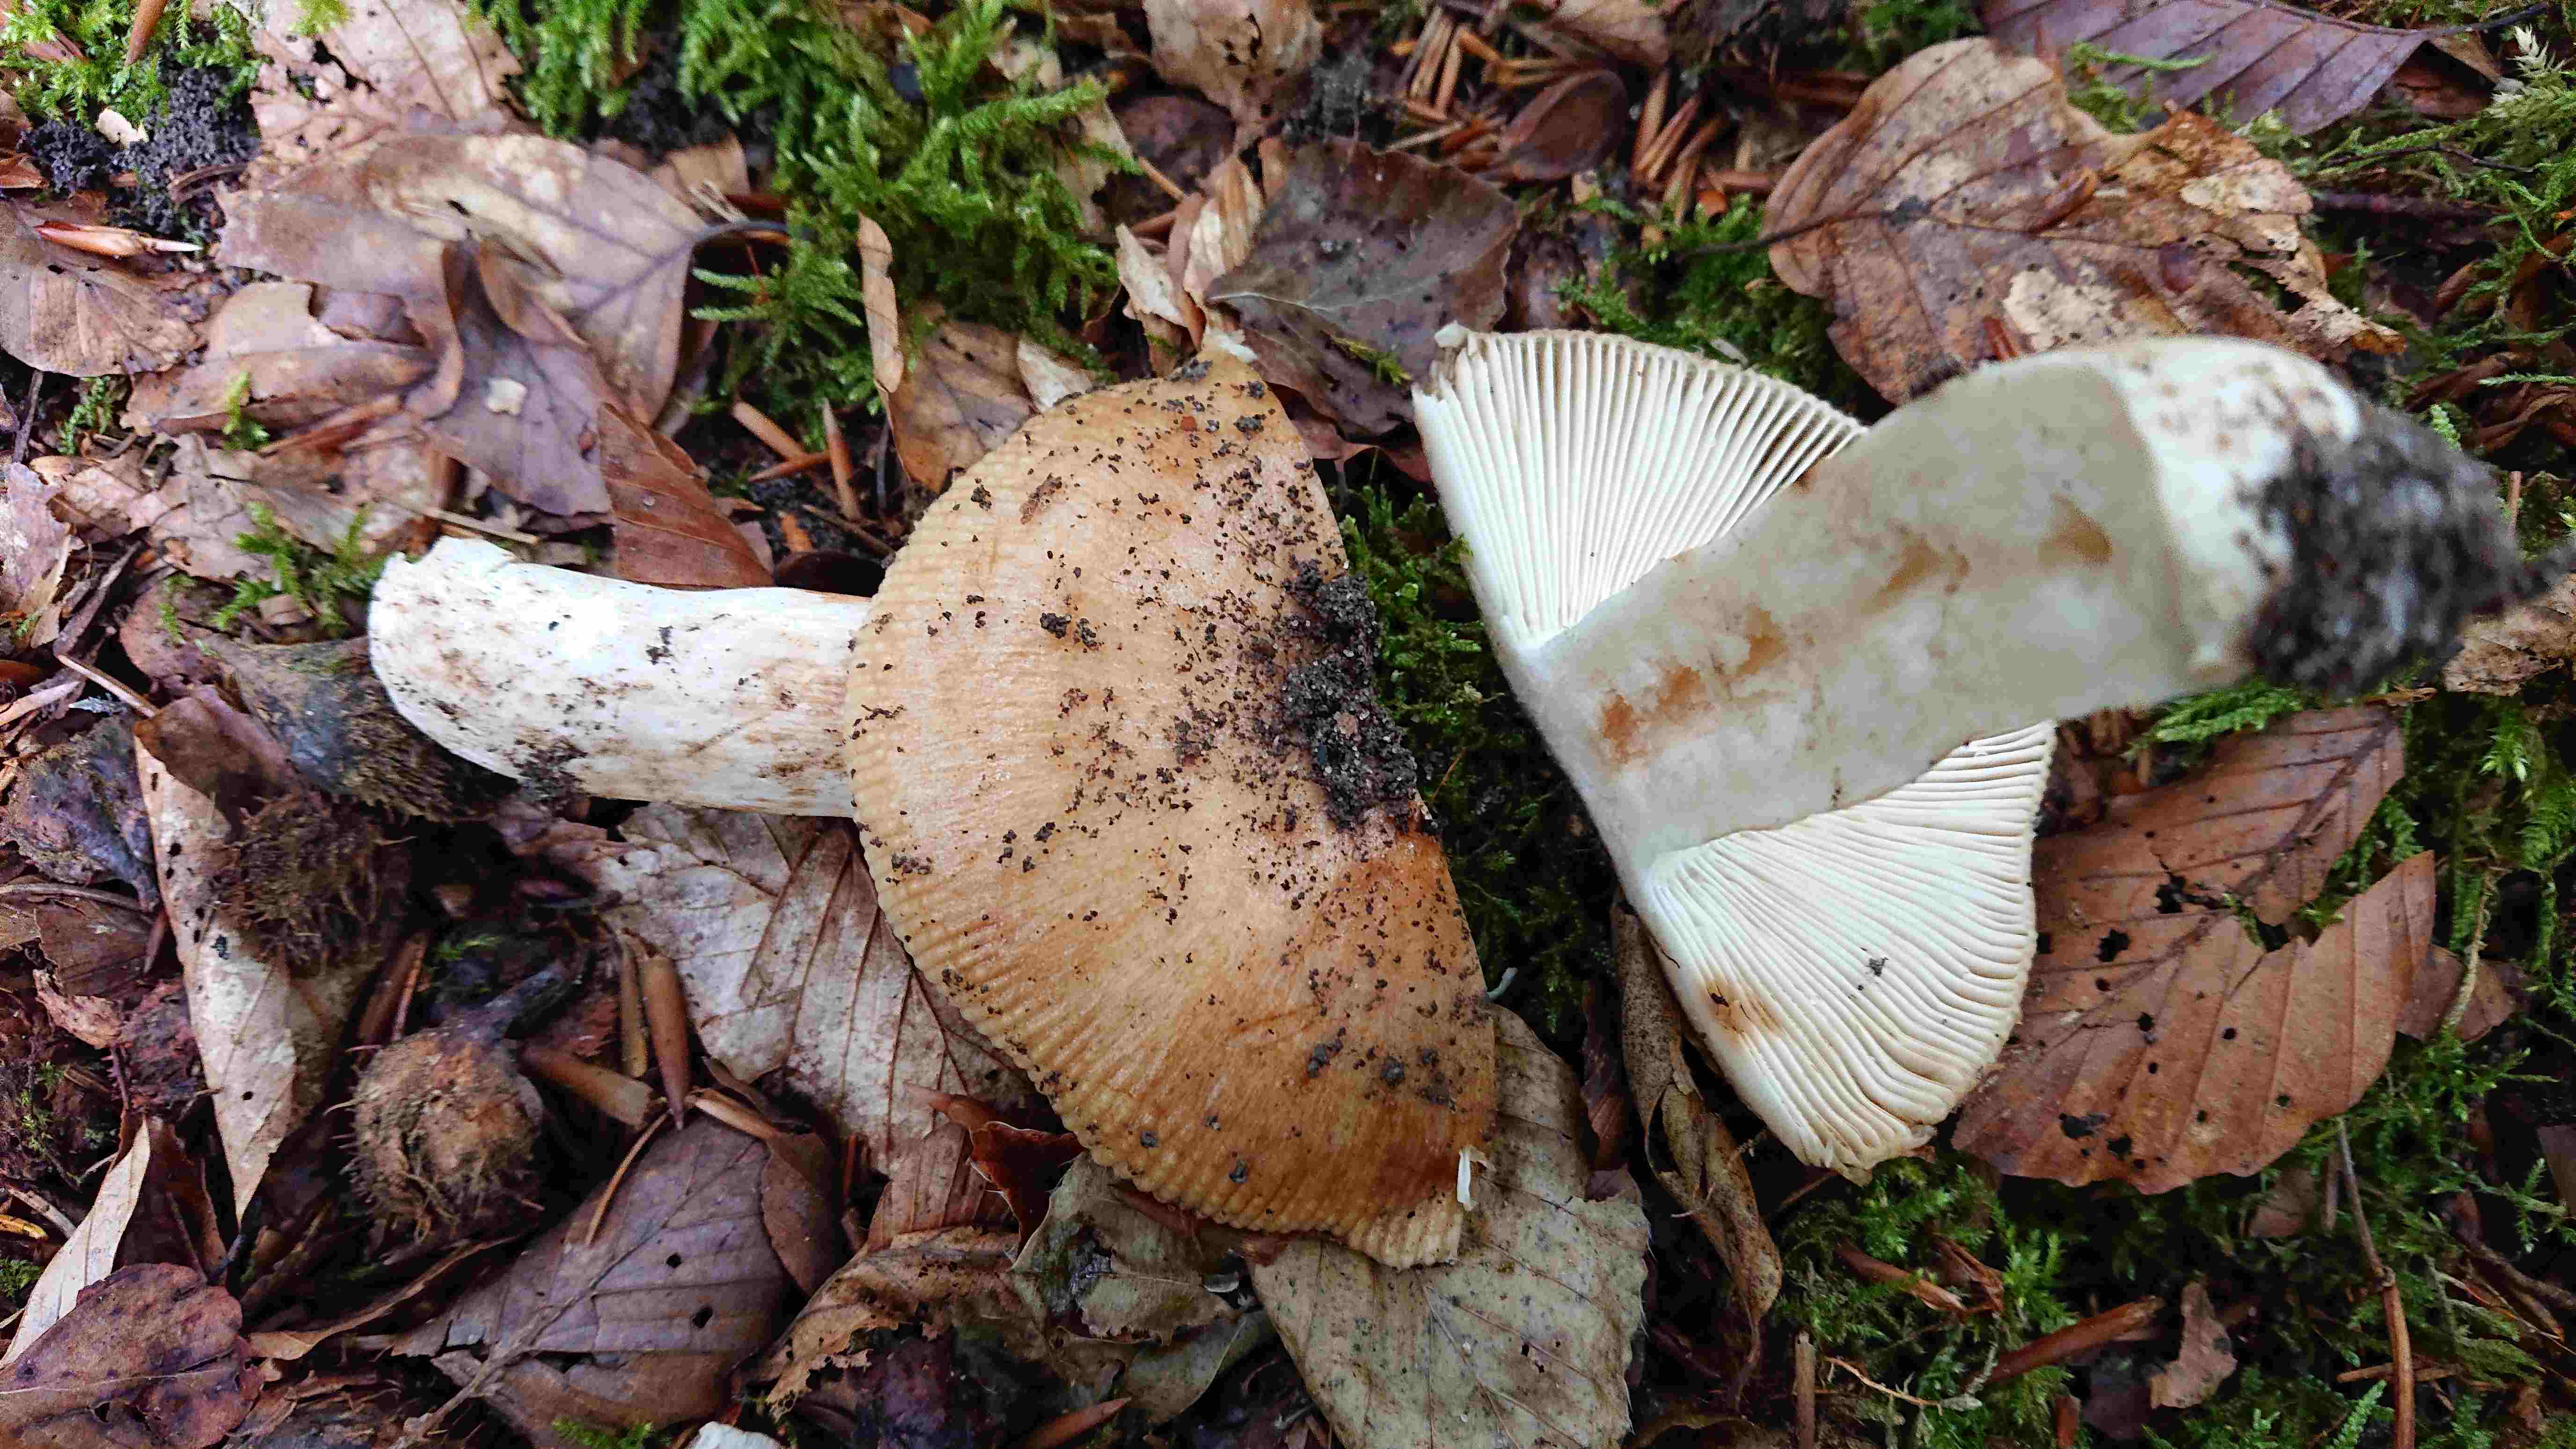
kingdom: Fungi
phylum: Basidiomycota
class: Agaricomycetes
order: Russulales
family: Russulaceae
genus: Russula
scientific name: Russula grata
